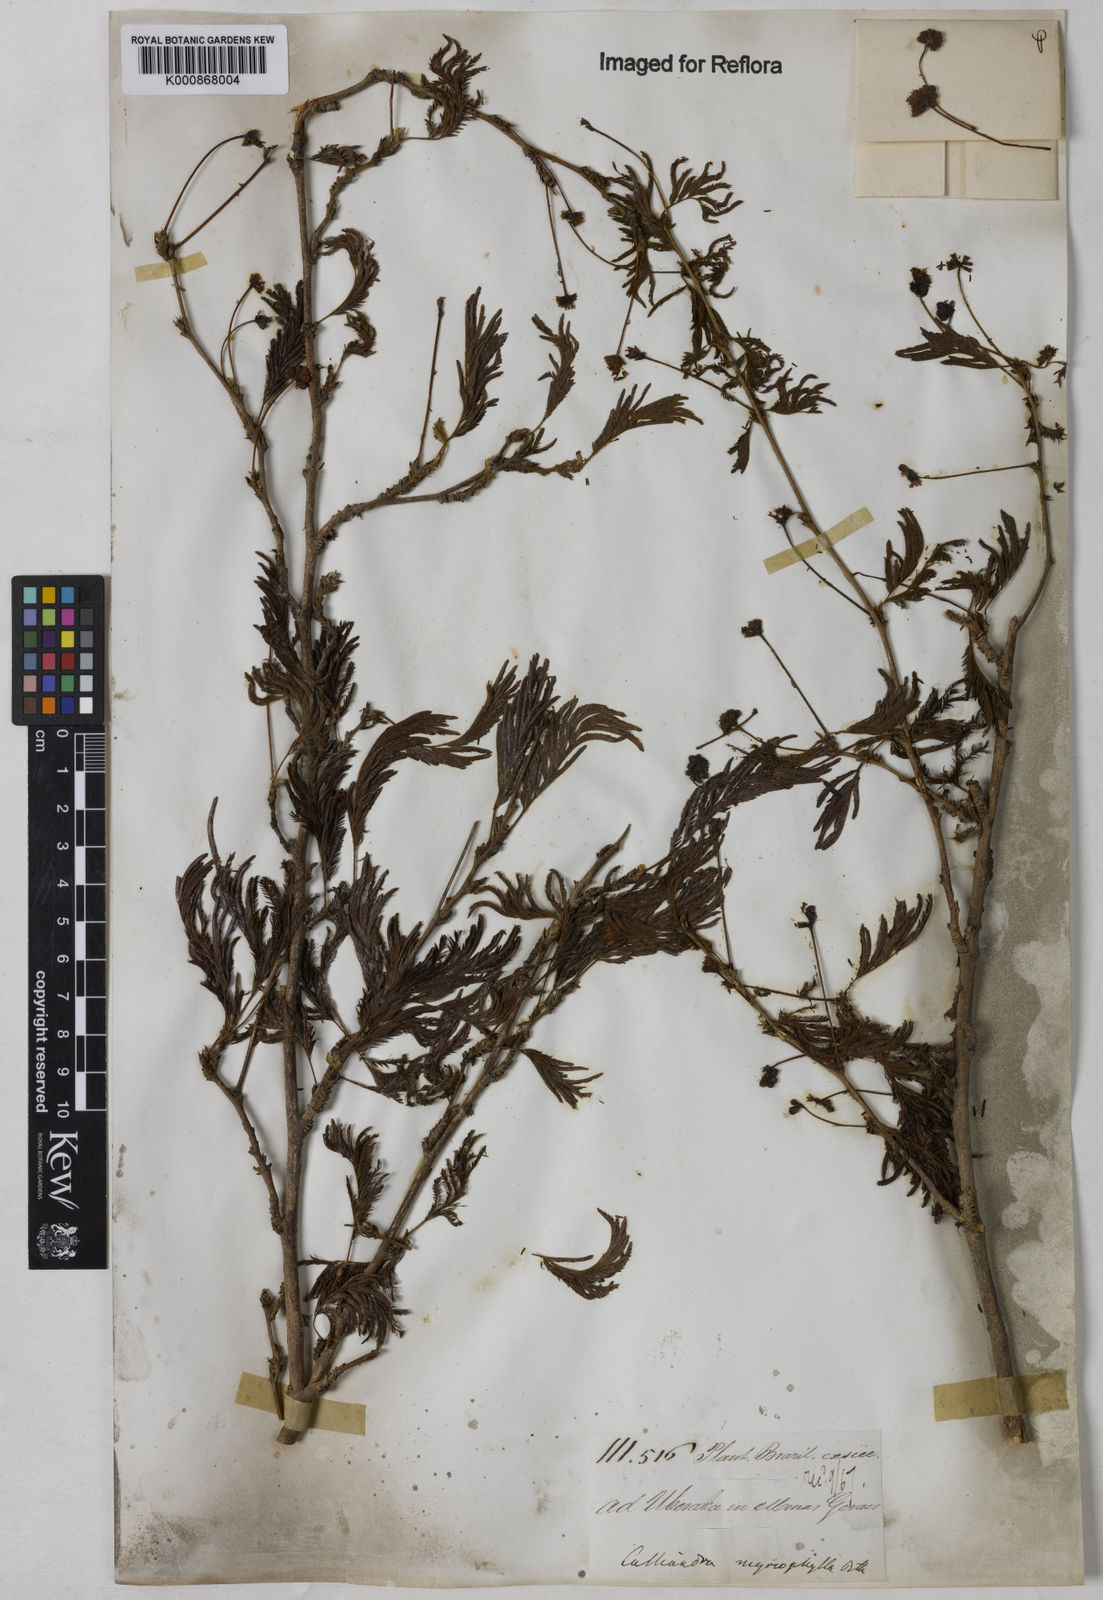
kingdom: Plantae
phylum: Tracheophyta
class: Magnoliopsida
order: Fabales
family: Fabaceae
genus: Calliandra
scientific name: Calliandra parvifolia
